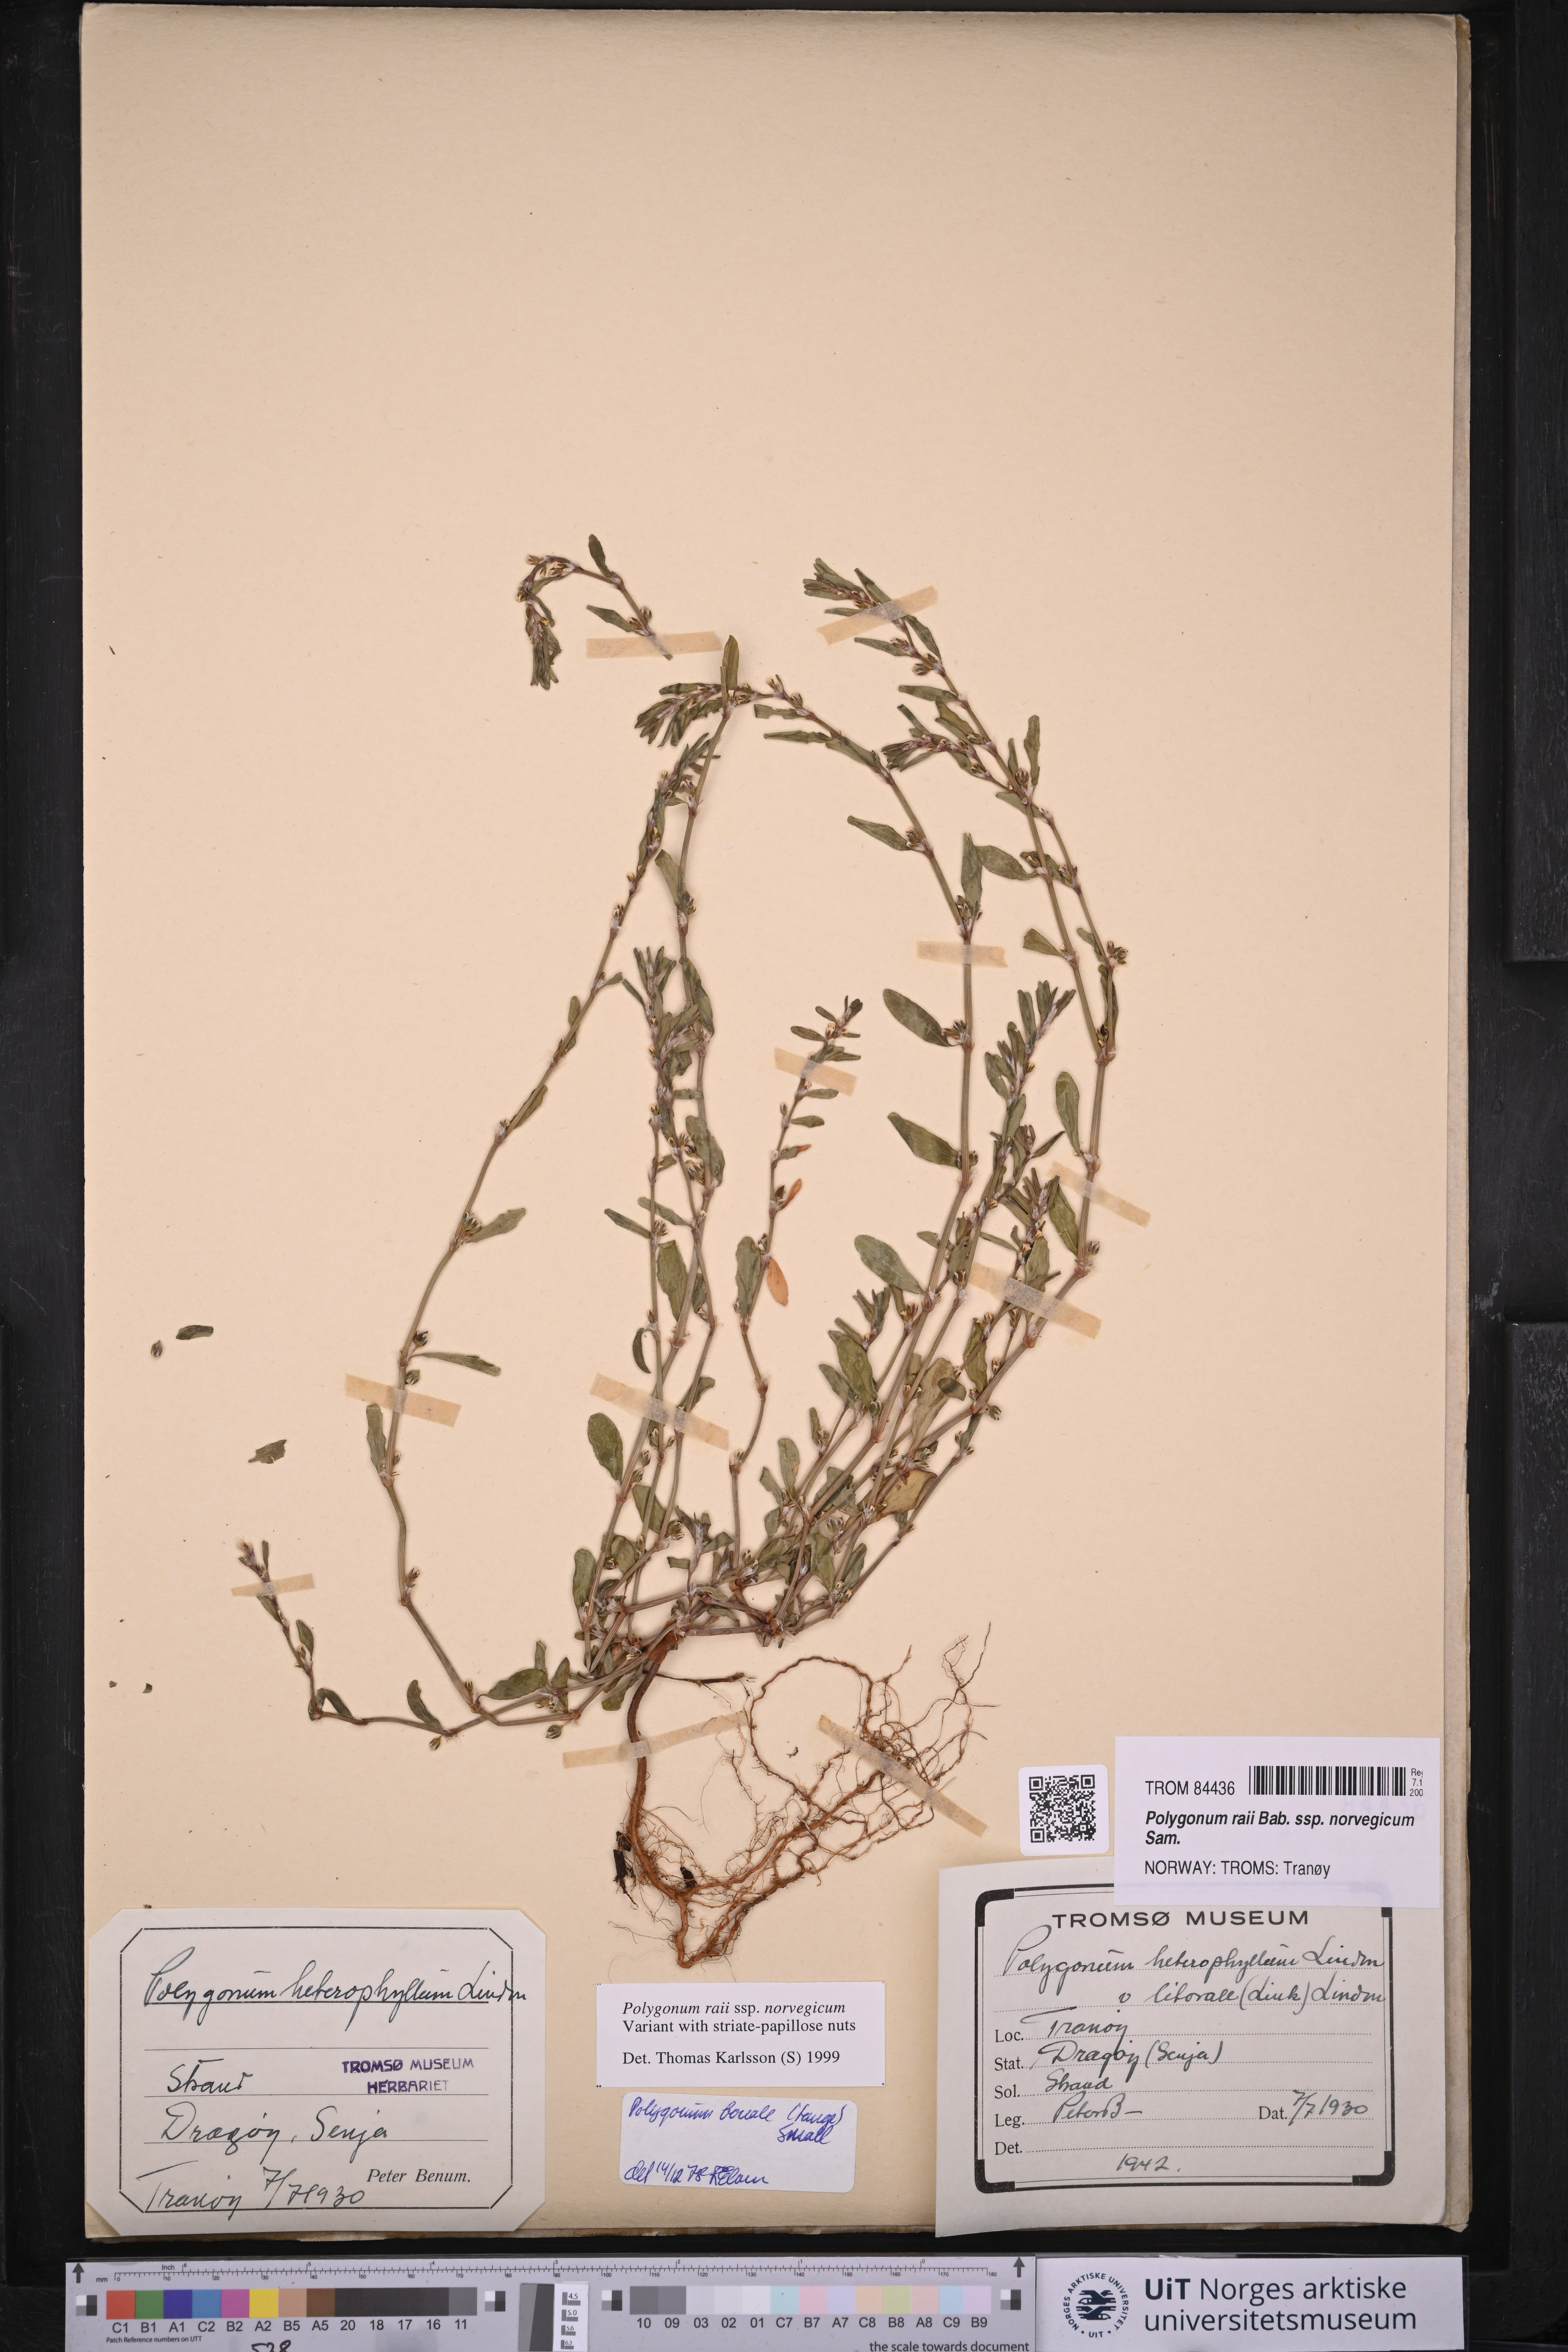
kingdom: Plantae
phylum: Tracheophyta
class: Magnoliopsida
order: Caryophyllales
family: Polygonaceae
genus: Polygonum
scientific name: Polygonum norvegicum
